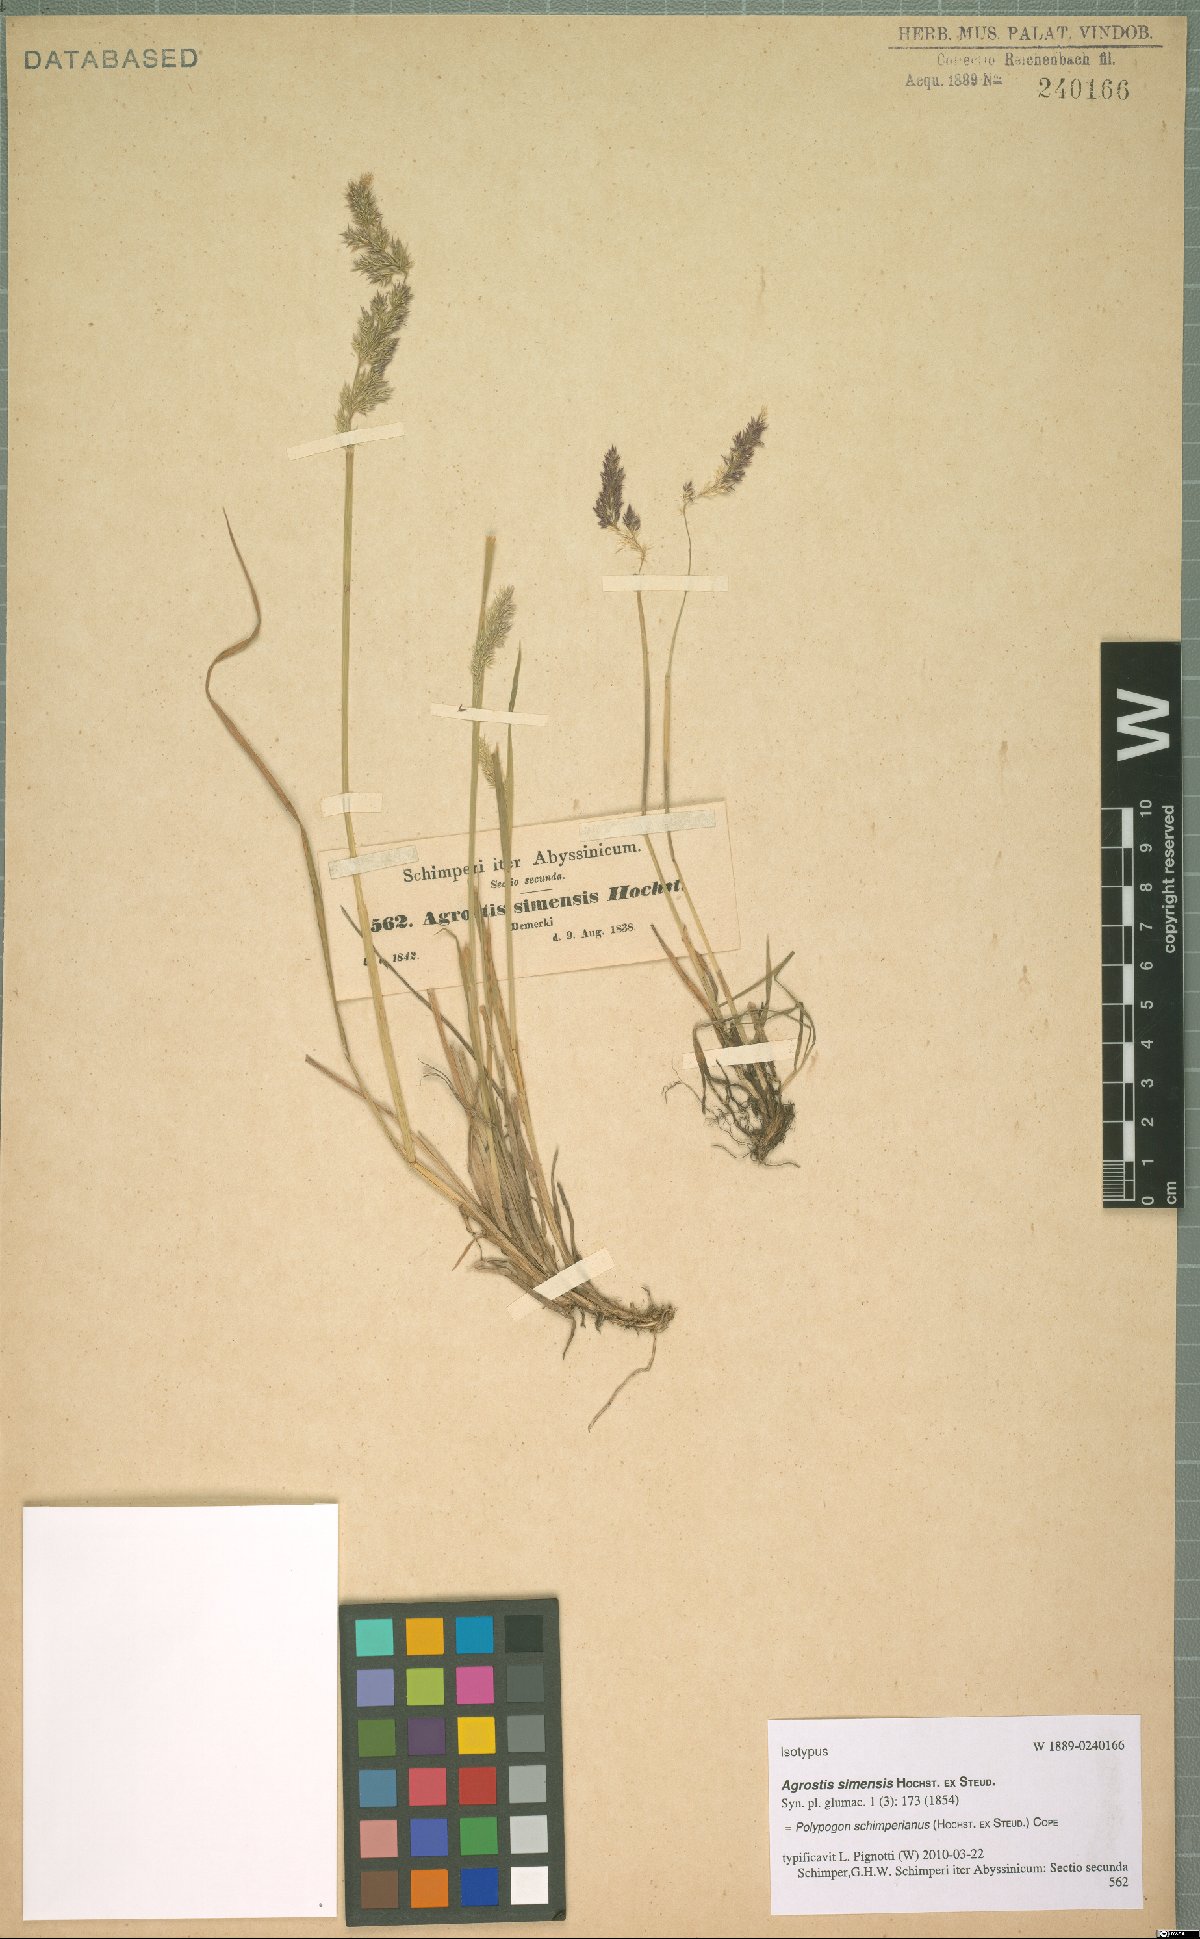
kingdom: Plantae
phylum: Tracheophyta
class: Liliopsida
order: Poales
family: Poaceae
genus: Polypogon
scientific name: Polypogon schimperianus
